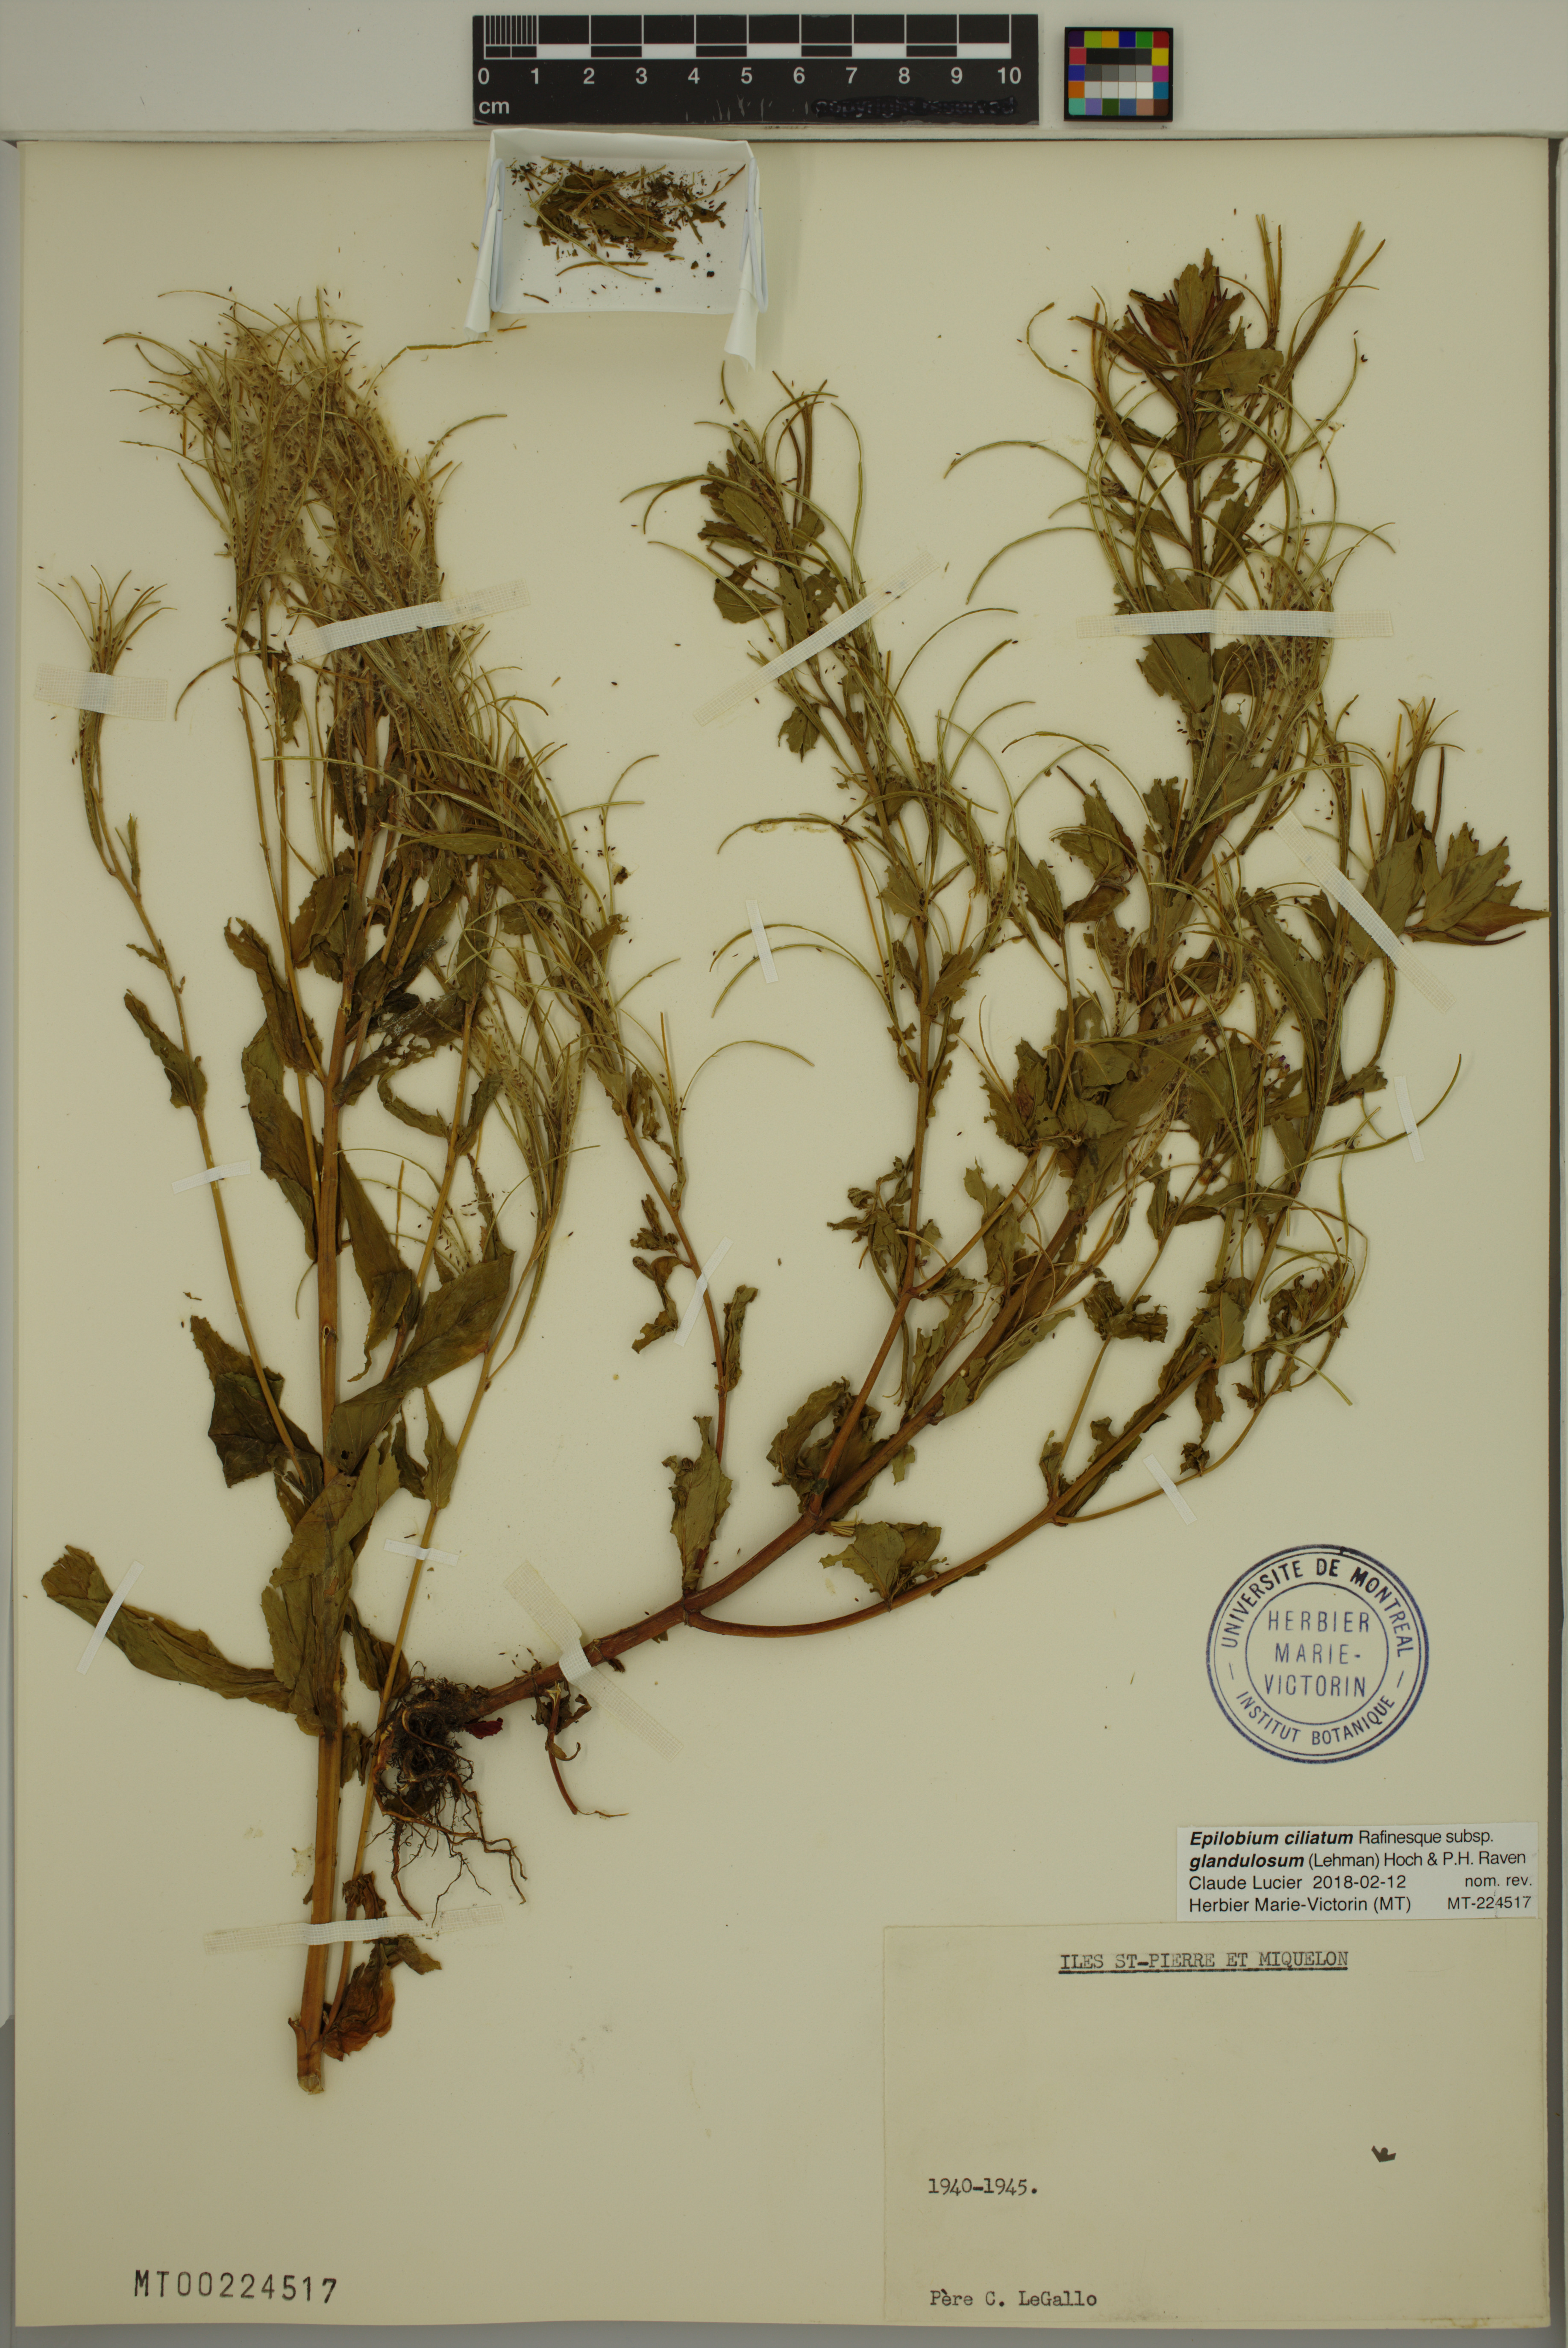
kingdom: Plantae
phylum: Tracheophyta
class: Magnoliopsida
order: Myrtales
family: Onagraceae
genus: Epilobium
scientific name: Epilobium ciliatum
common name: American willowherb
